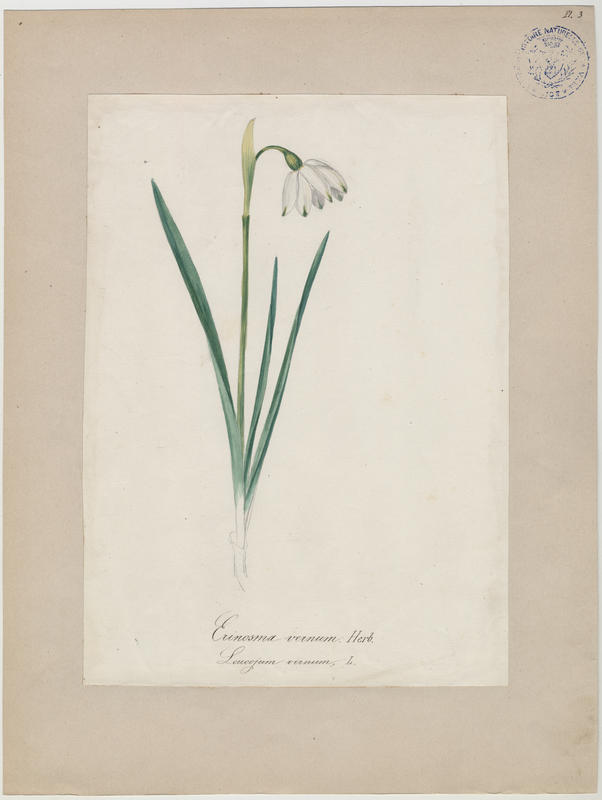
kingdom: Plantae
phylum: Tracheophyta
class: Liliopsida
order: Asparagales
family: Amaryllidaceae
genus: Leucojum
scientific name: Leucojum vernum
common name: Spring snowflake
